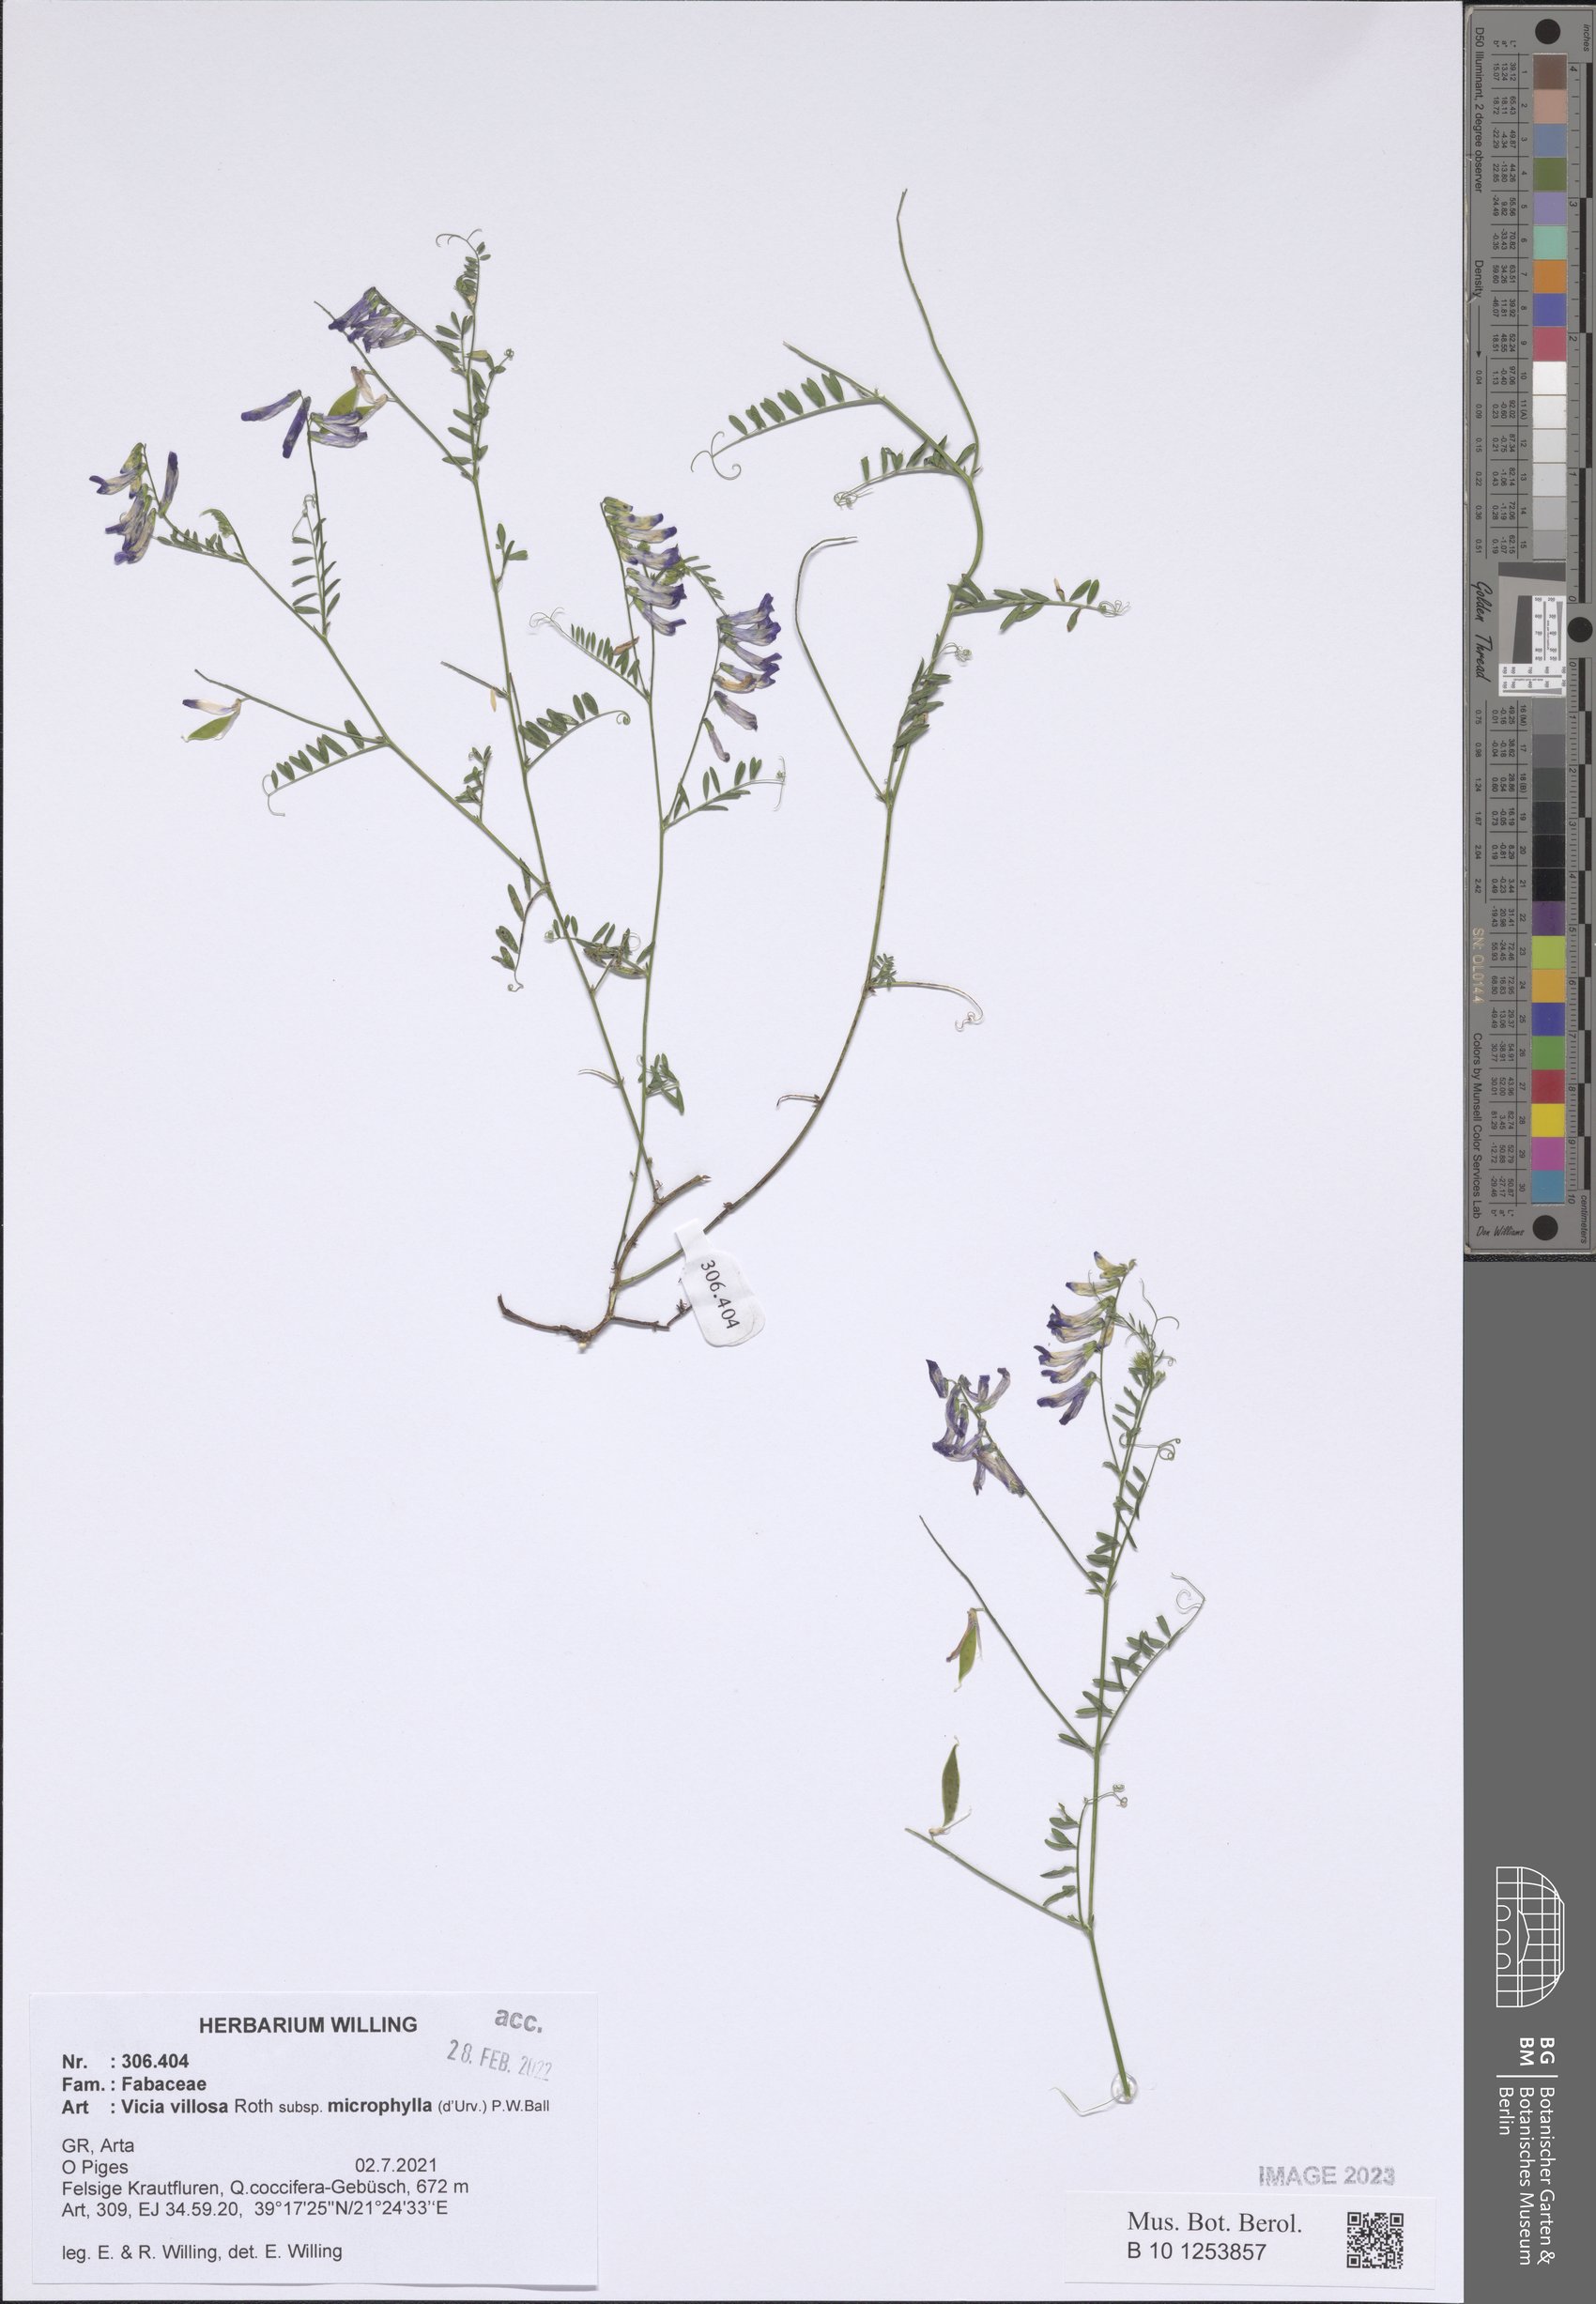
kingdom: Plantae
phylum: Tracheophyta
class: Magnoliopsida
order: Fabales
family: Fabaceae
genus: Vicia
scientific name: Vicia villosa
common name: Fodder vetch
